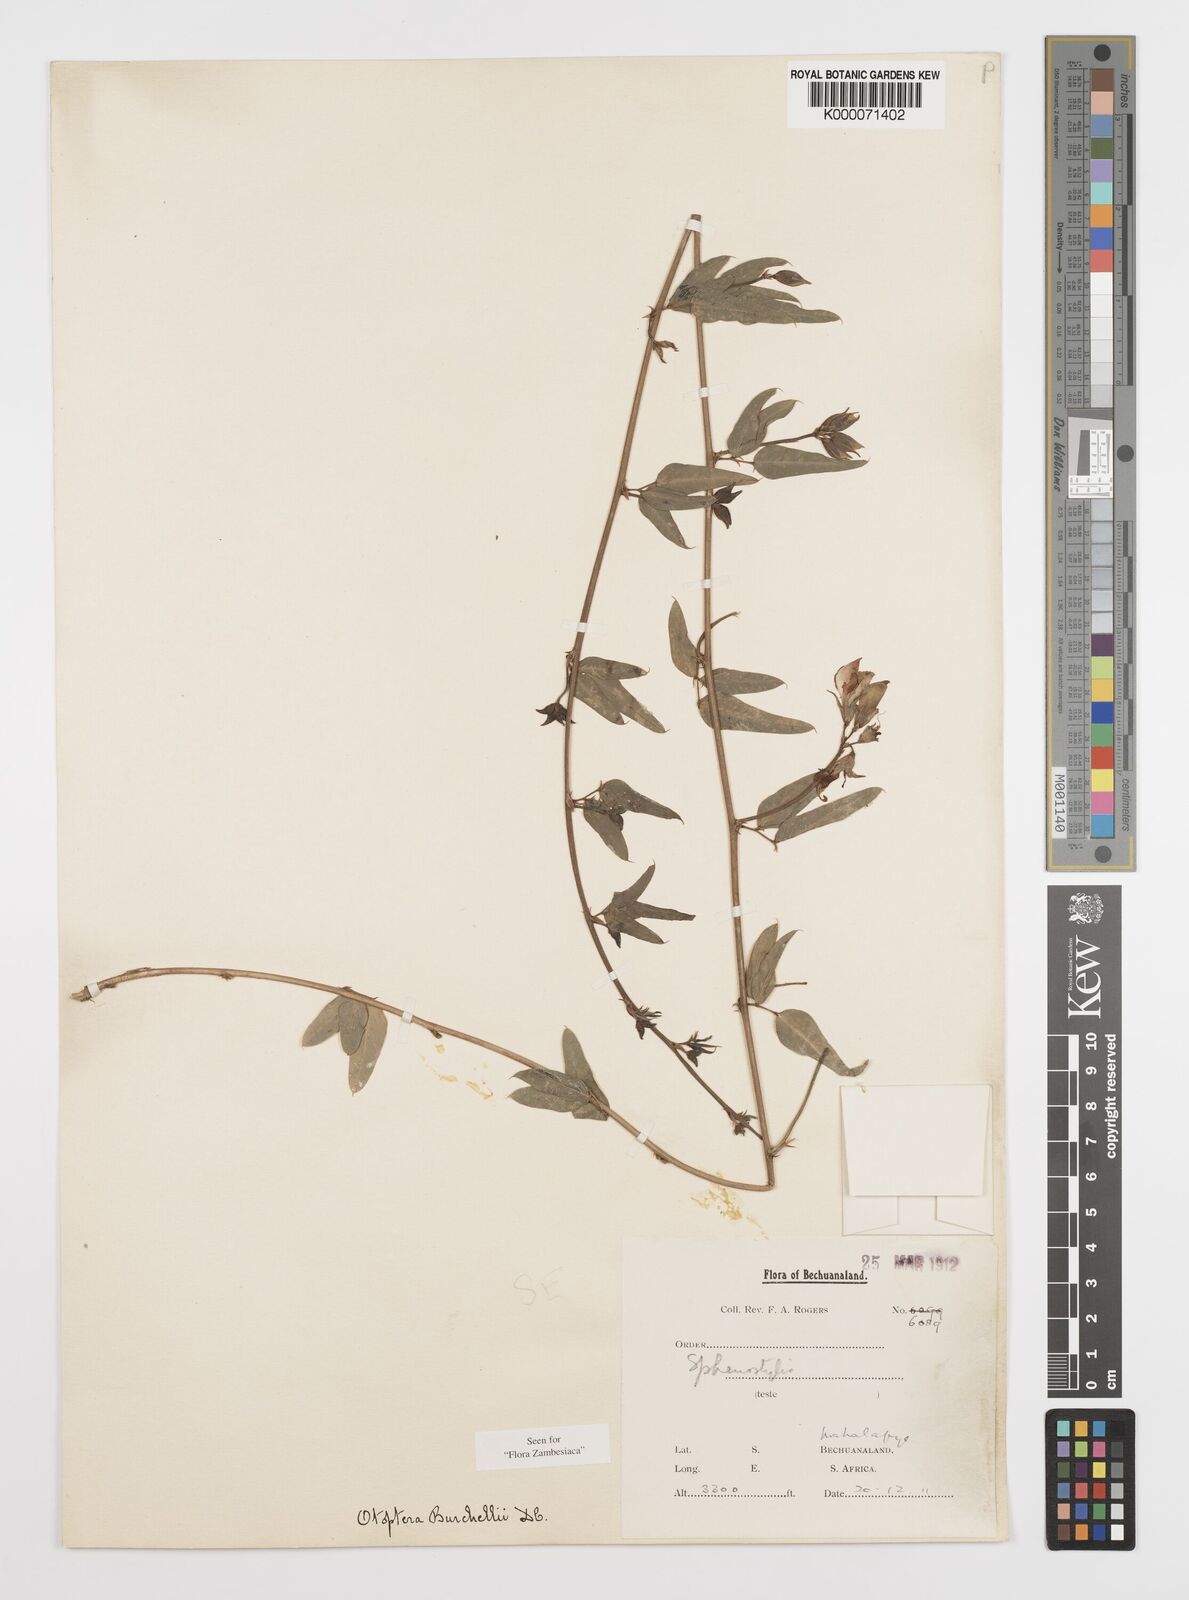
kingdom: Plantae
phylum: Tracheophyta
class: Magnoliopsida
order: Fabales
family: Fabaceae
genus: Otoptera
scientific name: Otoptera burchellii
